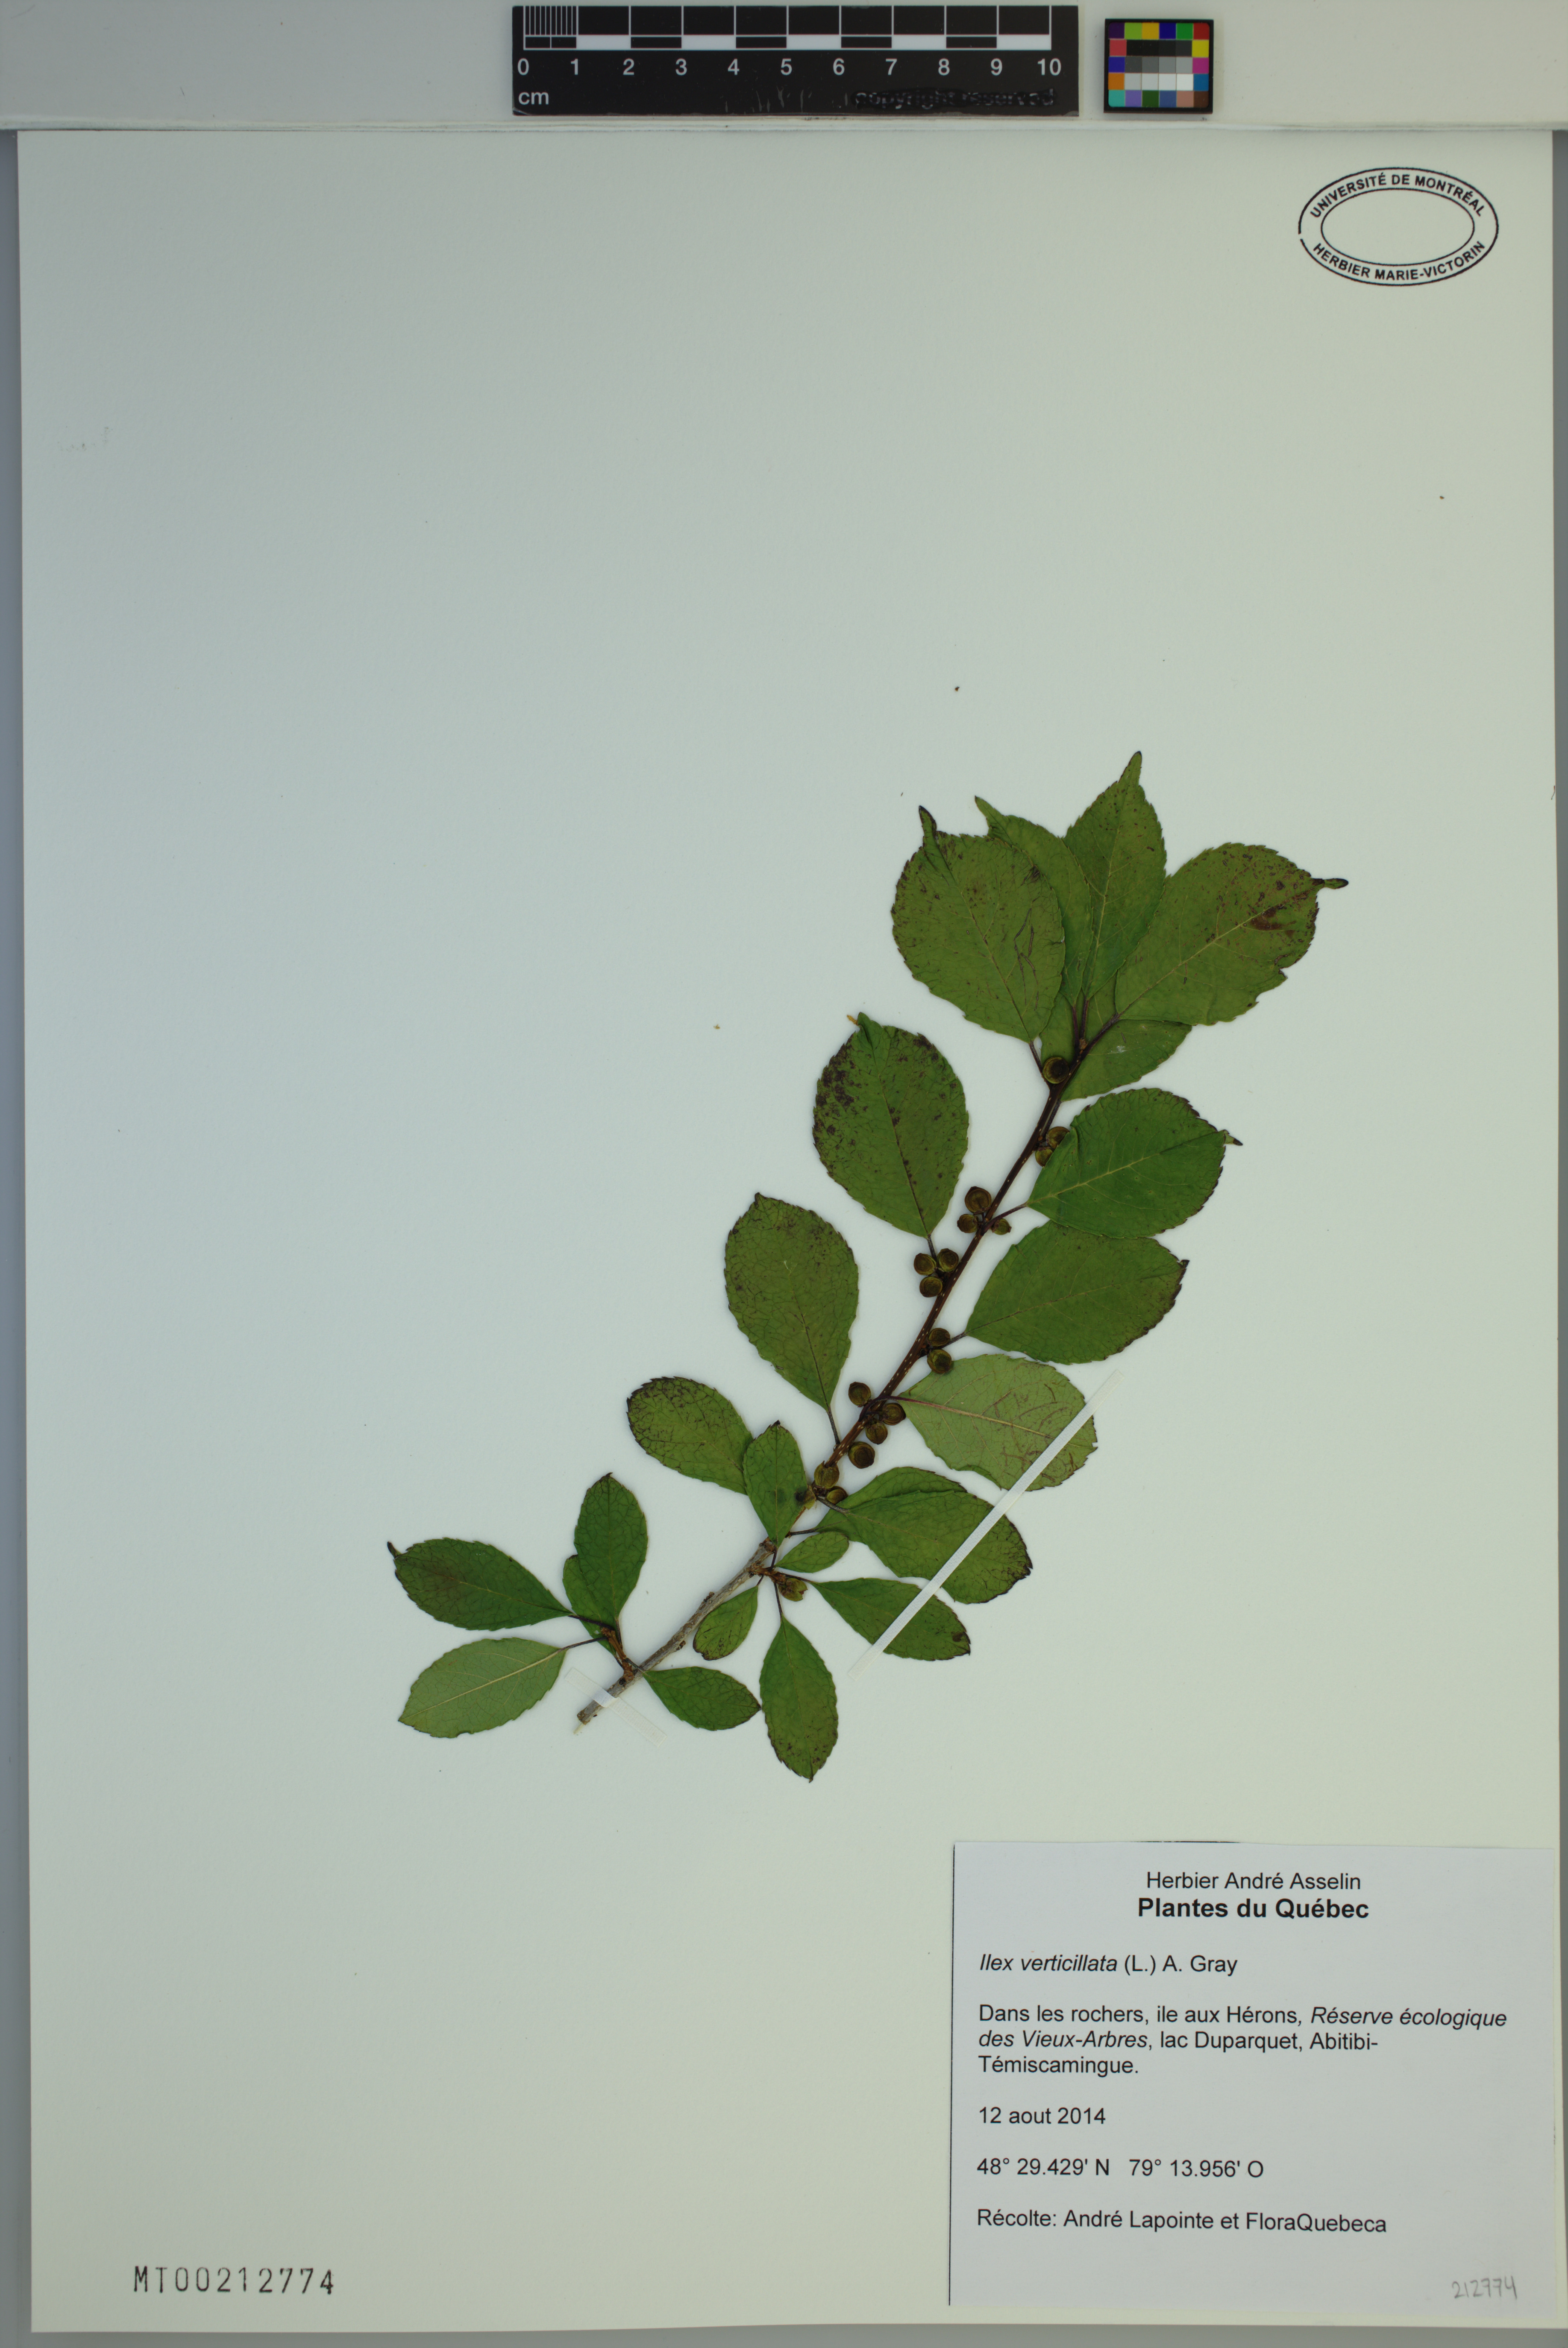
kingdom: Plantae
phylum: Tracheophyta
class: Magnoliopsida
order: Aquifoliales
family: Aquifoliaceae
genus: Ilex
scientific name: Ilex verticillata
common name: Virginia winterberry
